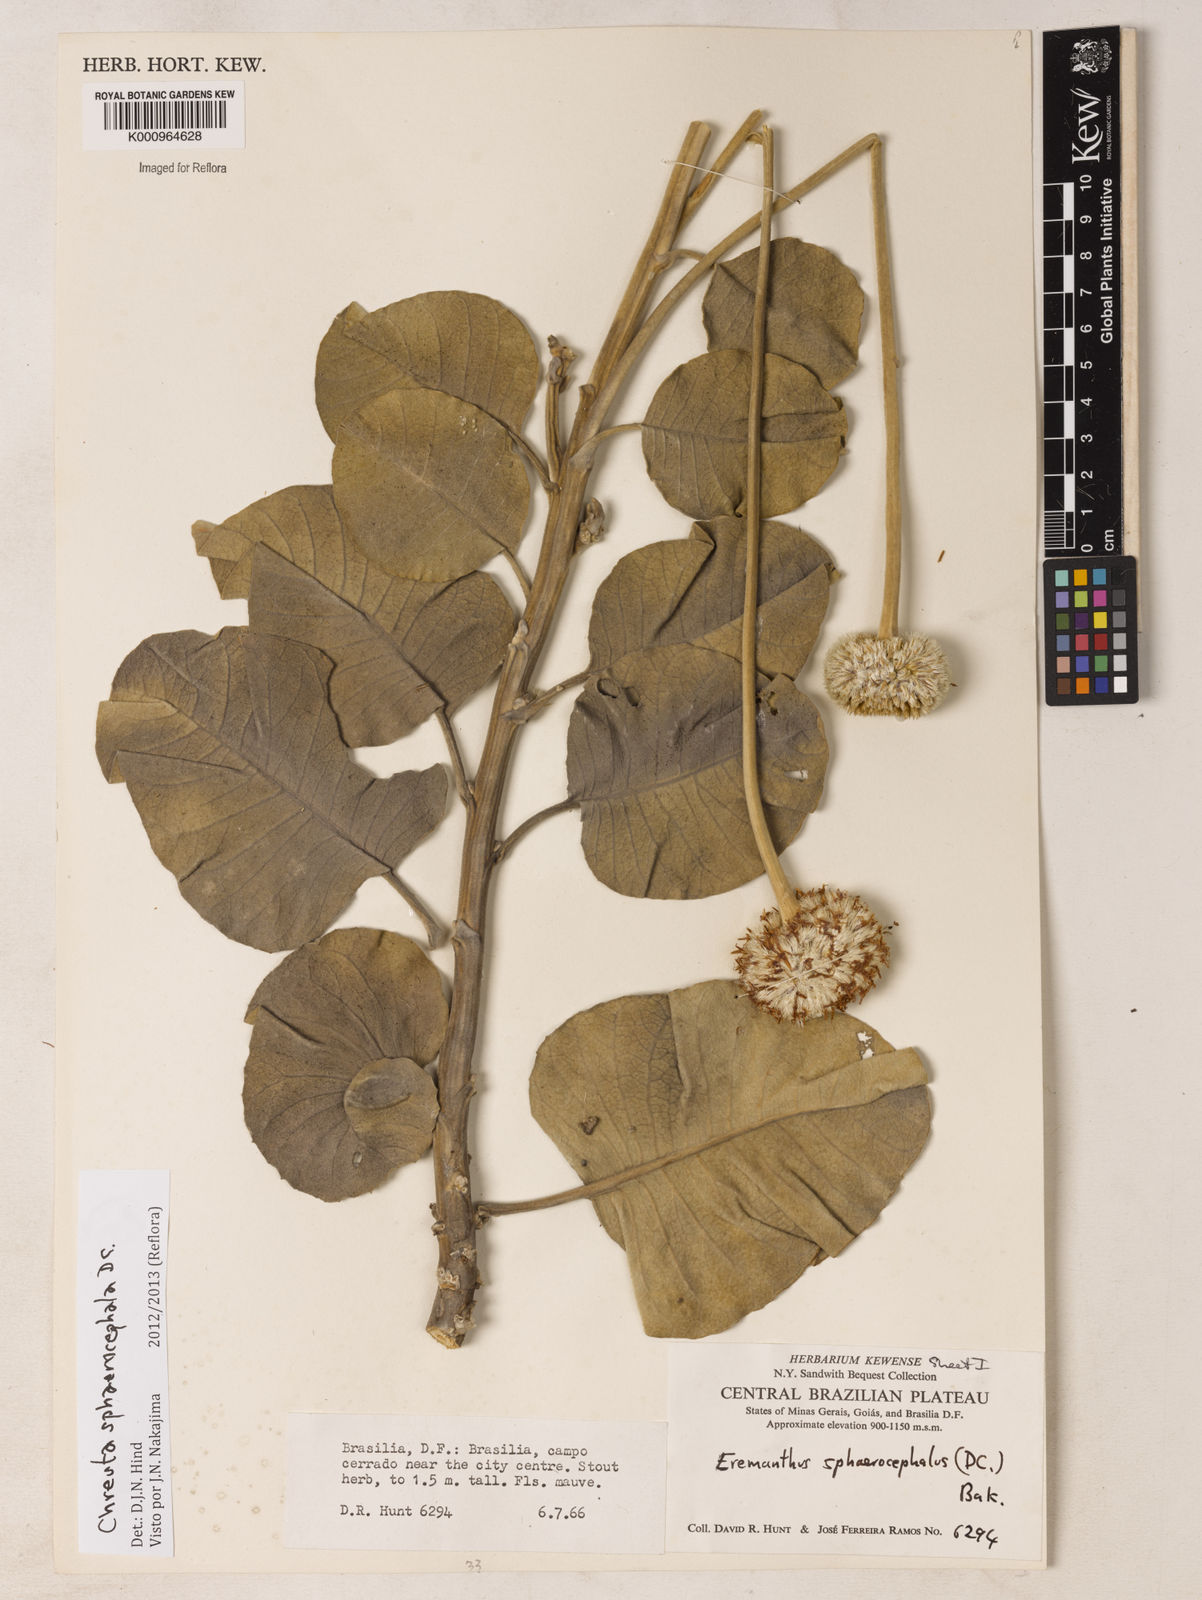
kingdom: Plantae
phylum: Tracheophyta
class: Magnoliopsida
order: Asterales
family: Asteraceae
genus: Chresta
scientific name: Chresta sphaerocephala
